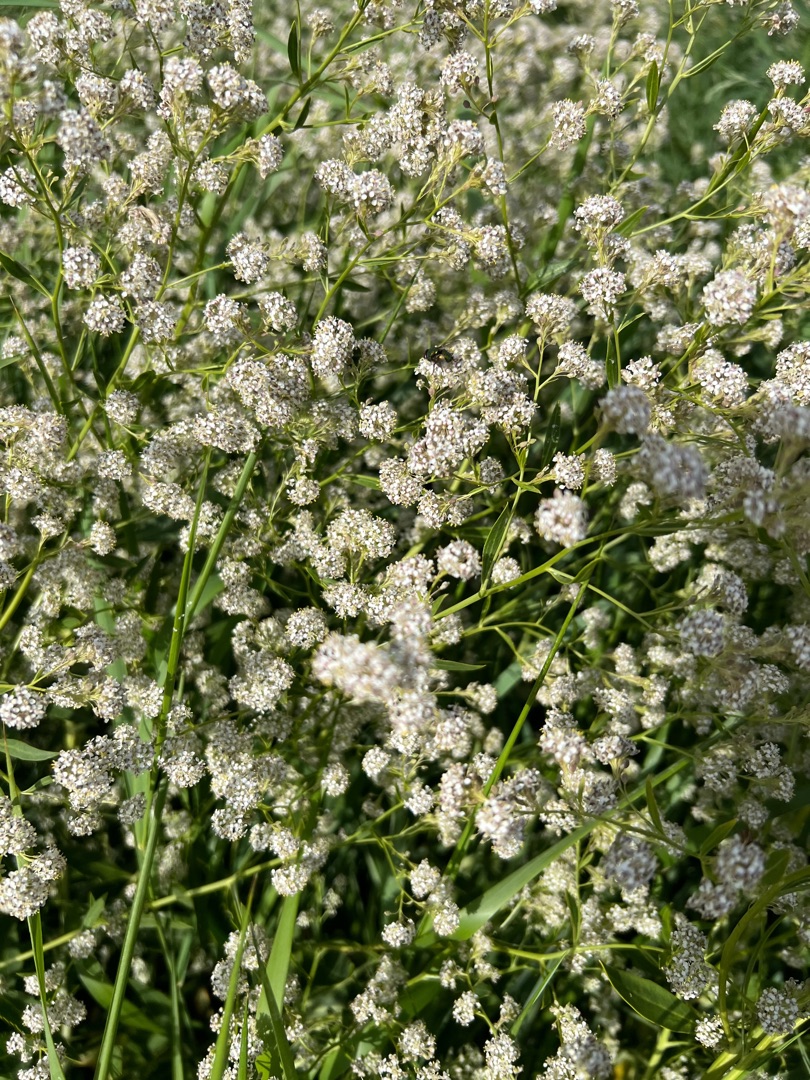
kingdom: Plantae
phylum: Tracheophyta
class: Magnoliopsida
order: Brassicales
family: Brassicaceae
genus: Lepidium
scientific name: Lepidium latifolium
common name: Strand-karse
